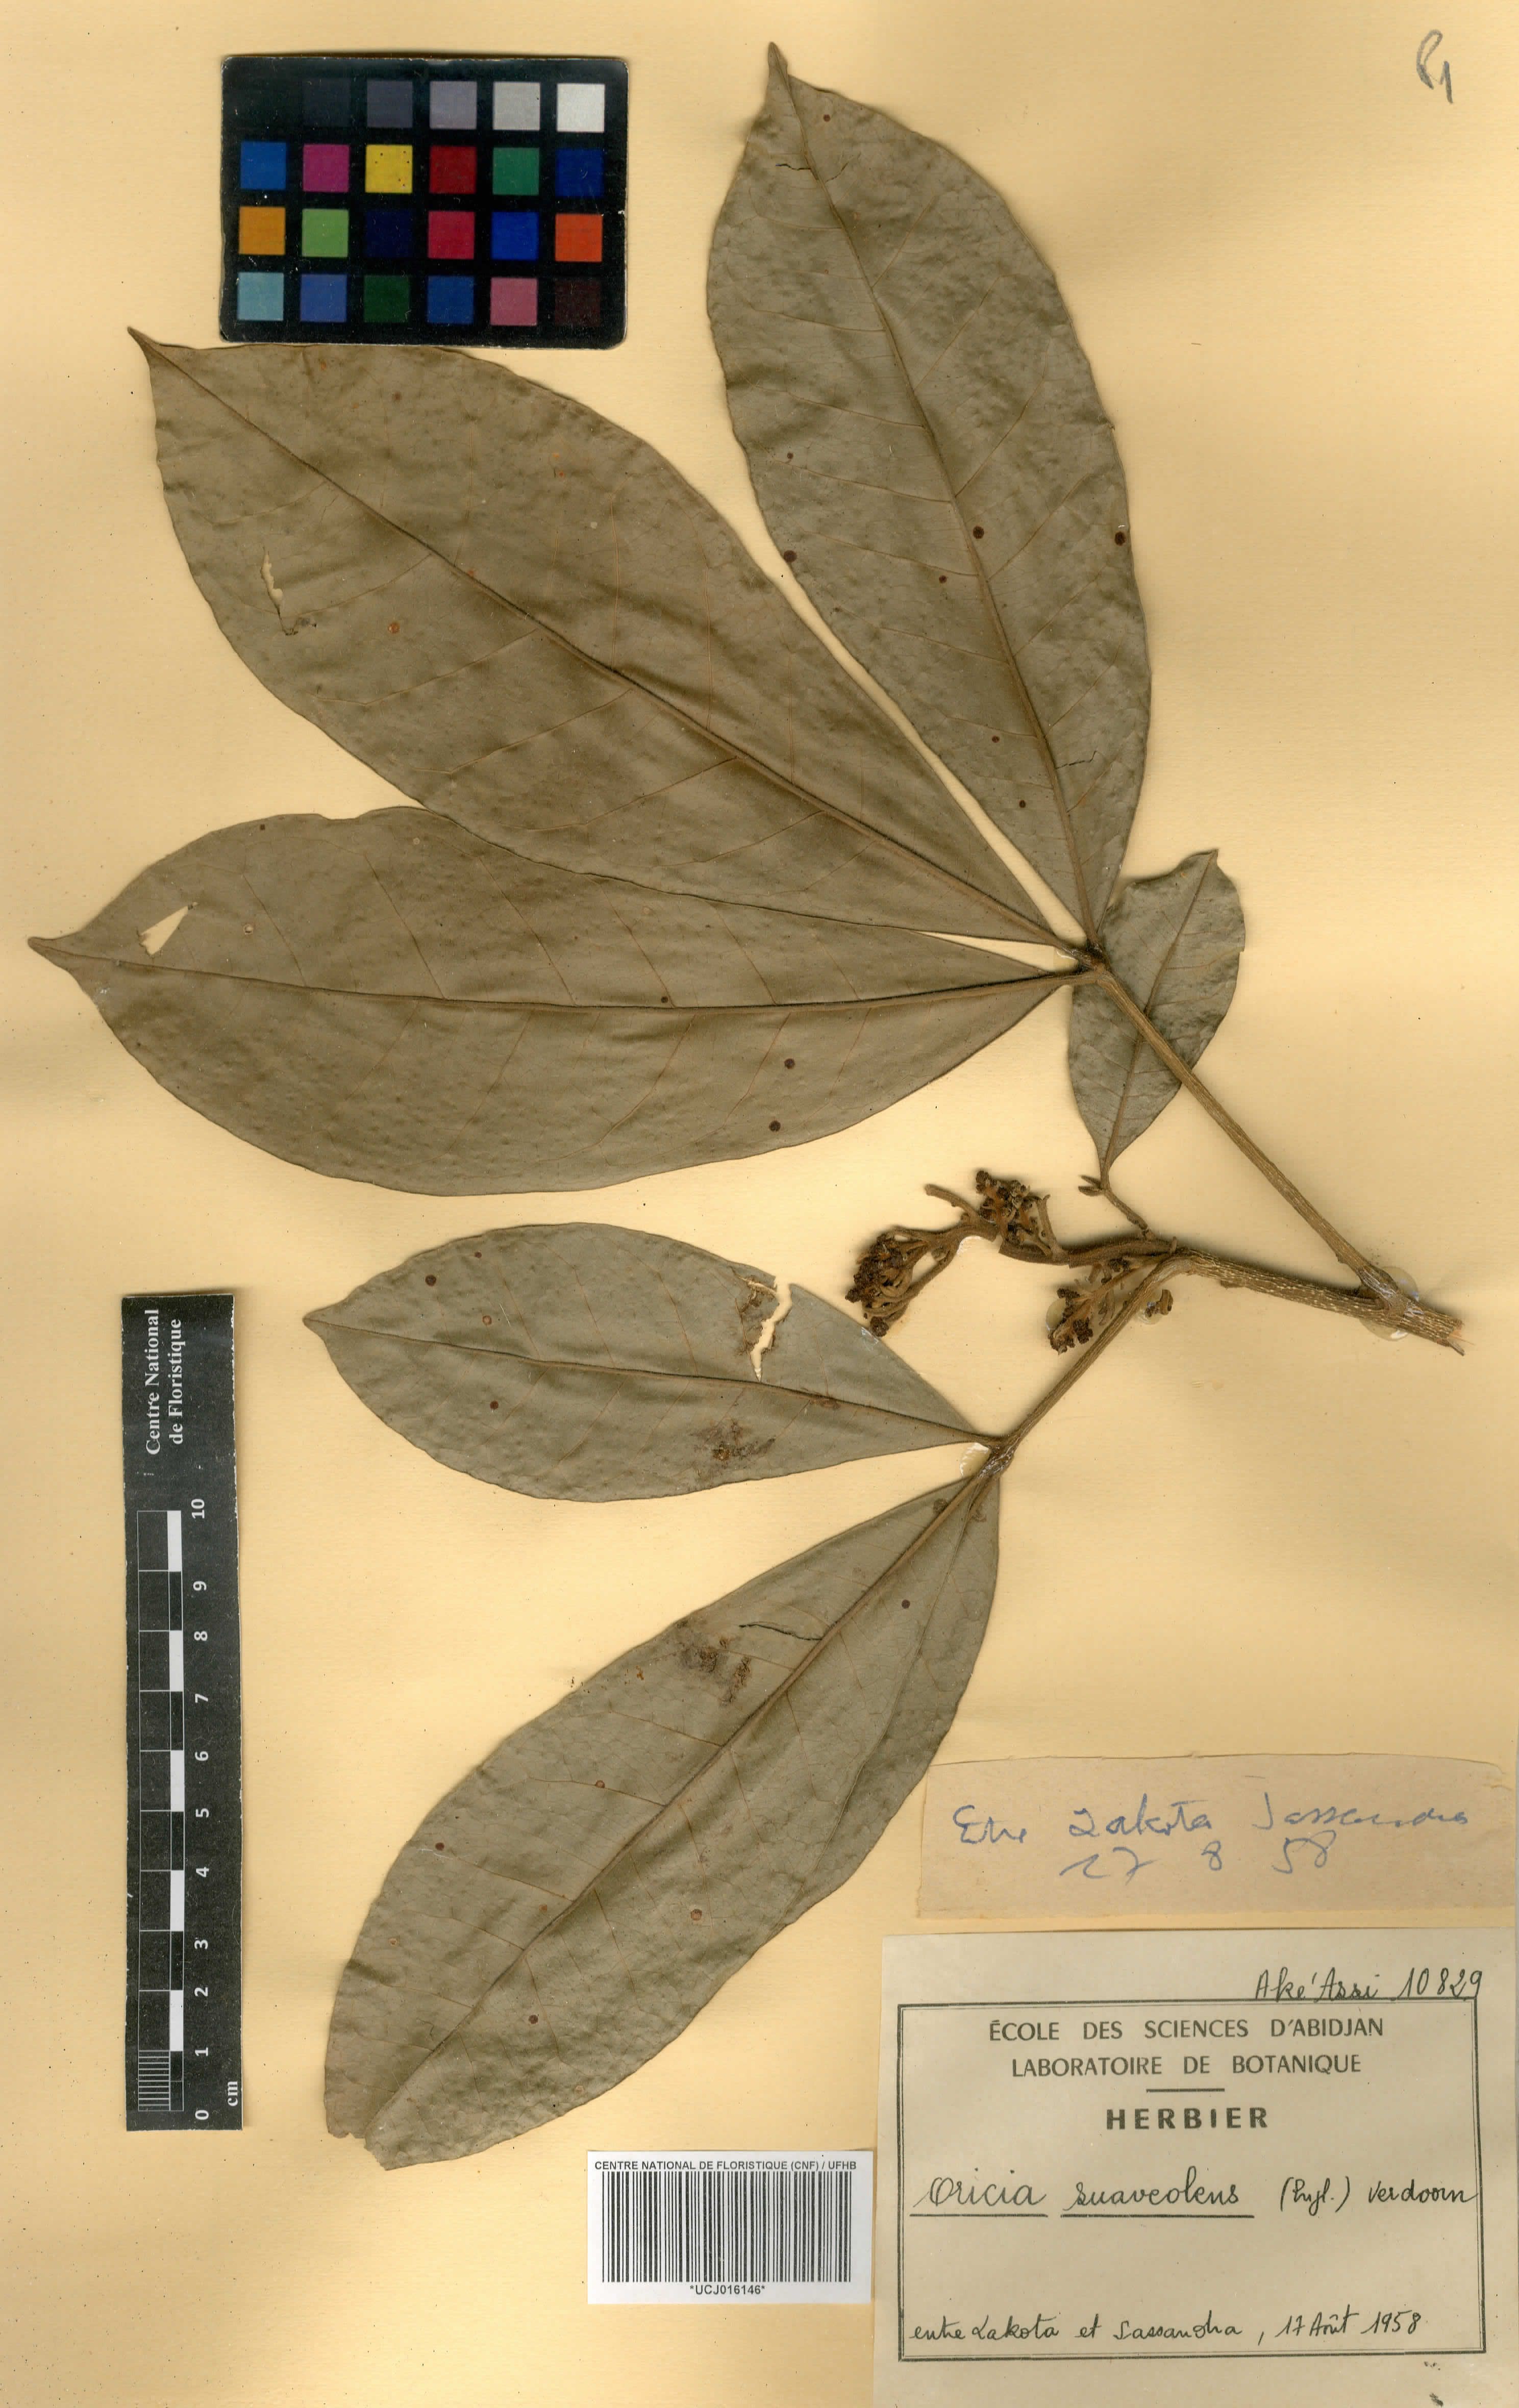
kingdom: Plantae
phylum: Tracheophyta
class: Magnoliopsida
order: Sapindales
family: Rutaceae
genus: Vepris
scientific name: Vepris suaveolens
